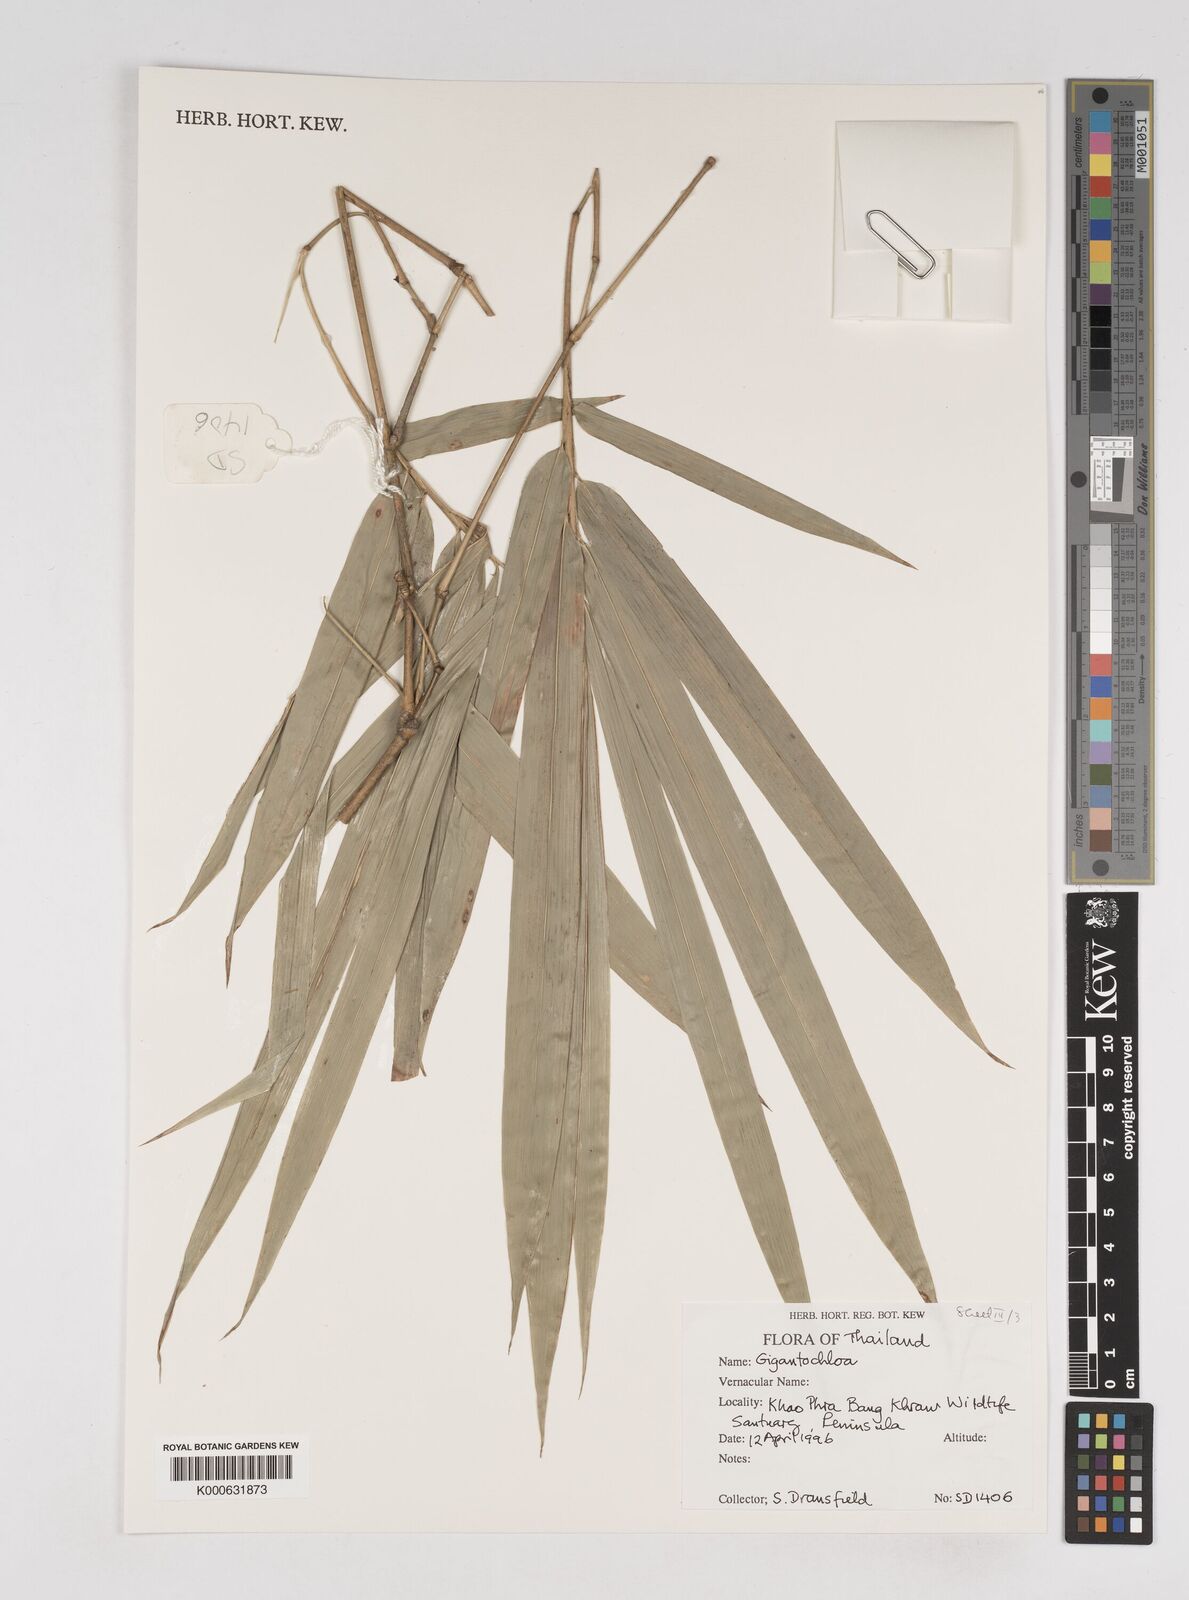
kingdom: Plantae
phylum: Tracheophyta
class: Liliopsida
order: Poales
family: Poaceae
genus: Gigantochloa
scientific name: Gigantochloa
